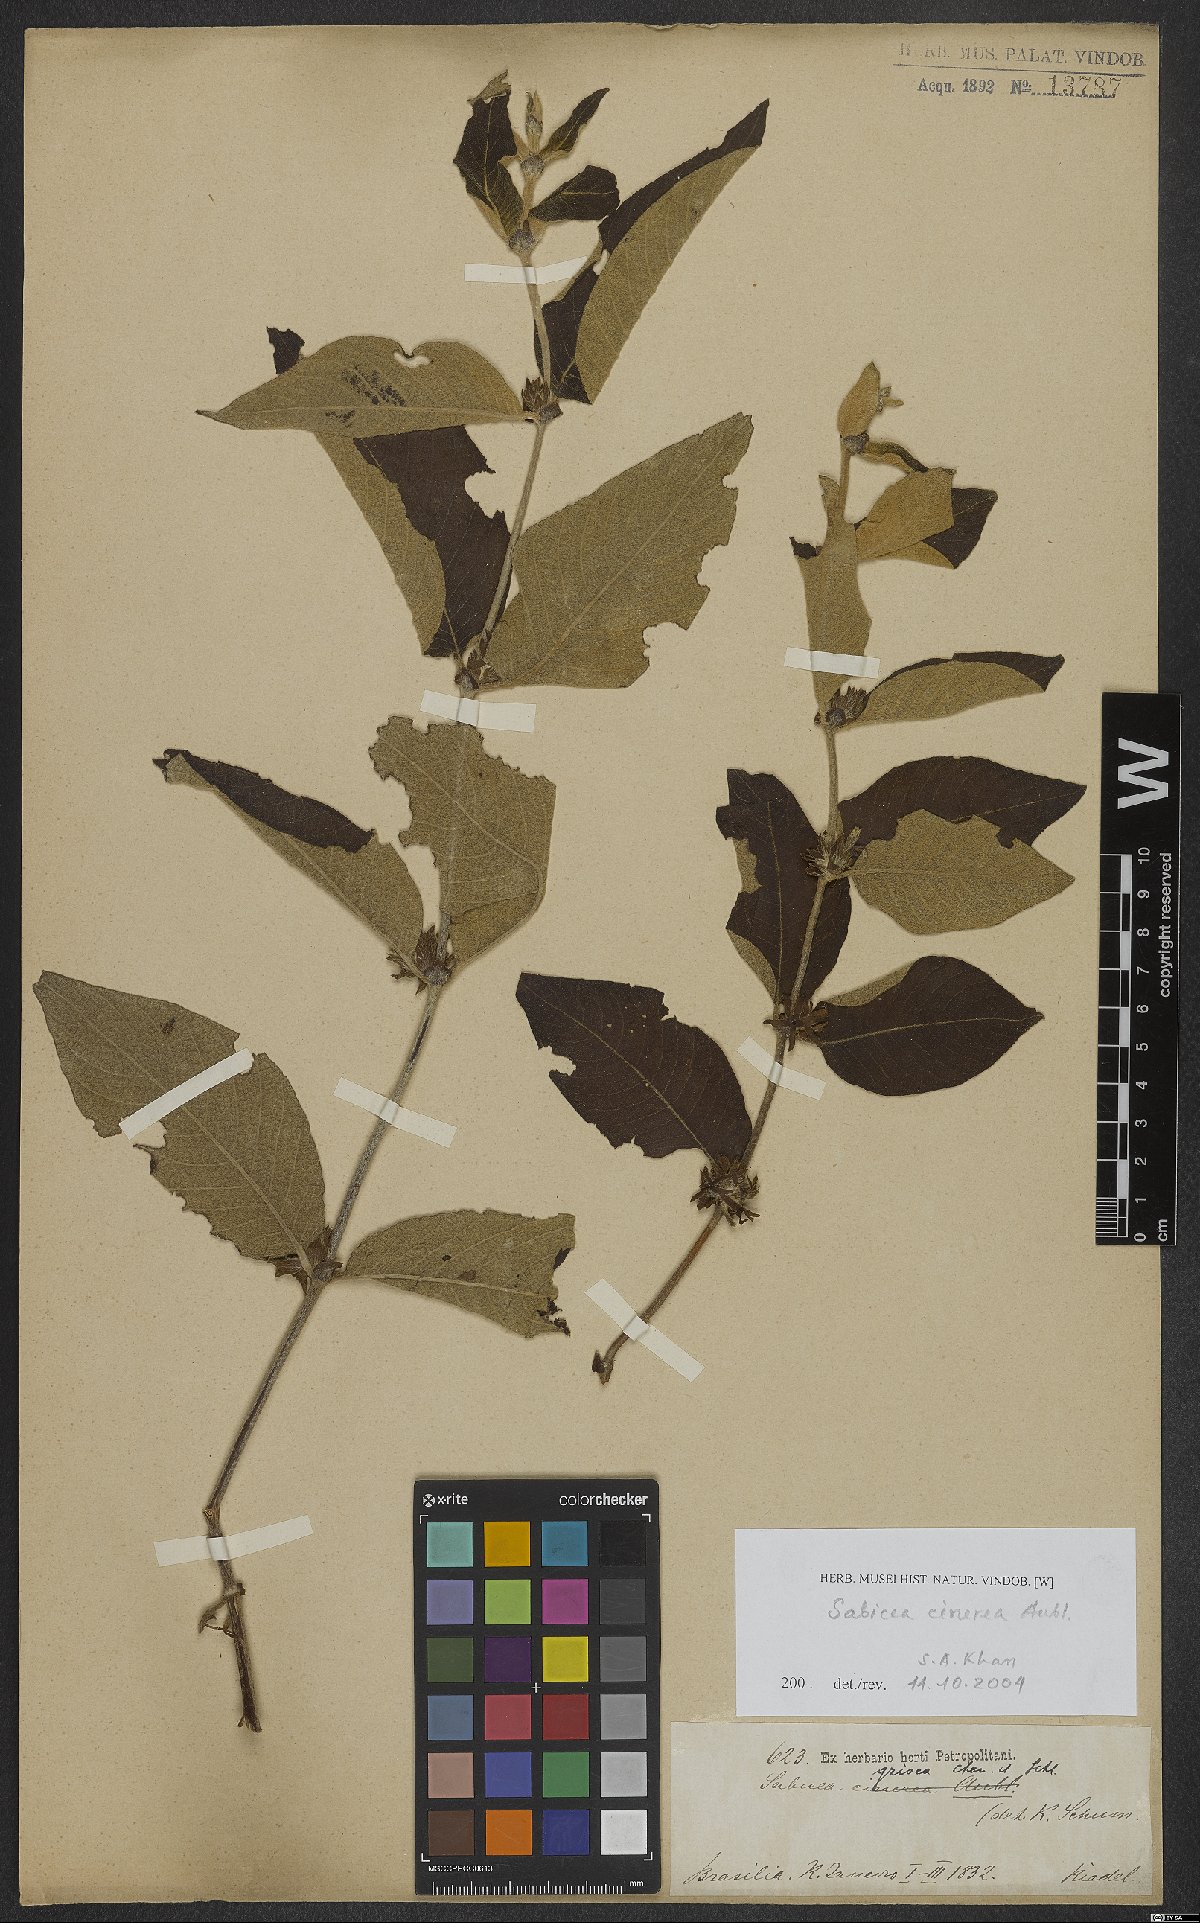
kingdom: Plantae
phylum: Tracheophyta
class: Magnoliopsida
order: Gentianales
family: Rubiaceae
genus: Sabicea
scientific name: Sabicea cinerea
